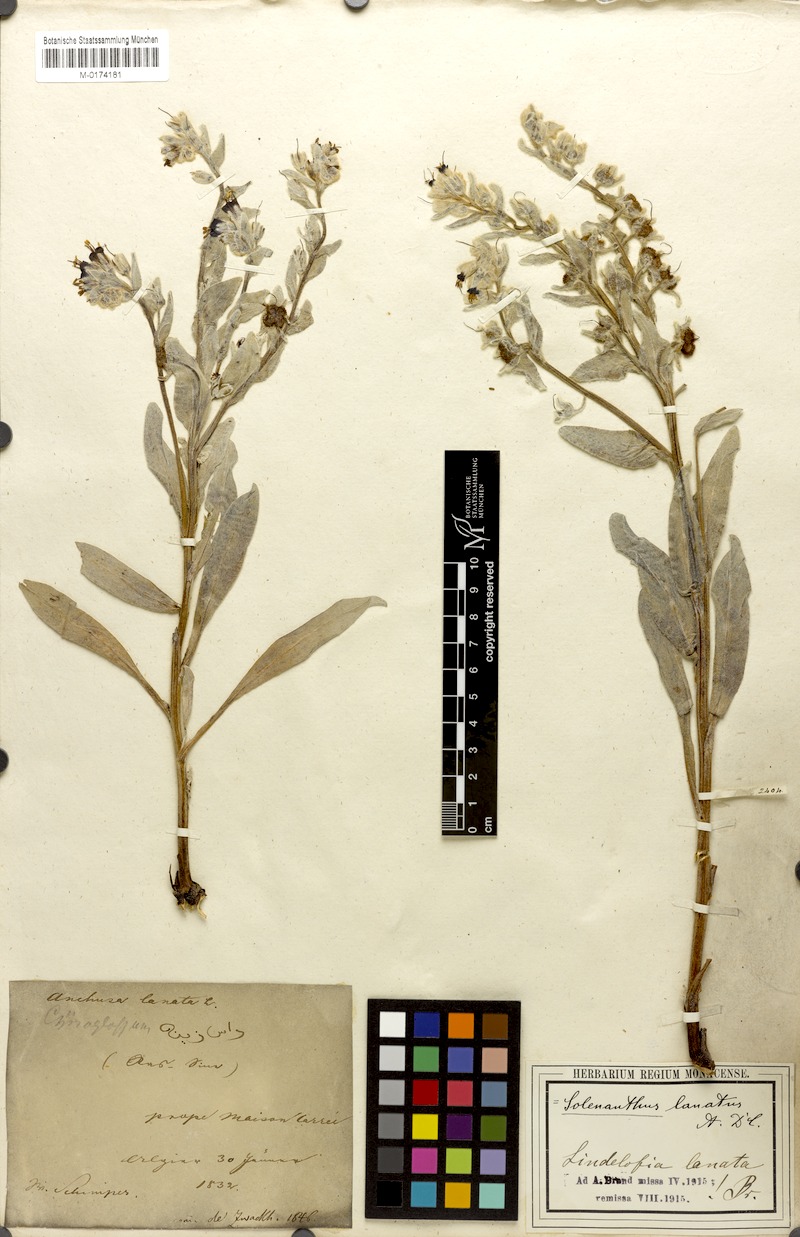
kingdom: Plantae
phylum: Tracheophyta
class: Magnoliopsida
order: Boraginales
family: Boraginaceae
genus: Pardoglossum
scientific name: Pardoglossum lanatum
